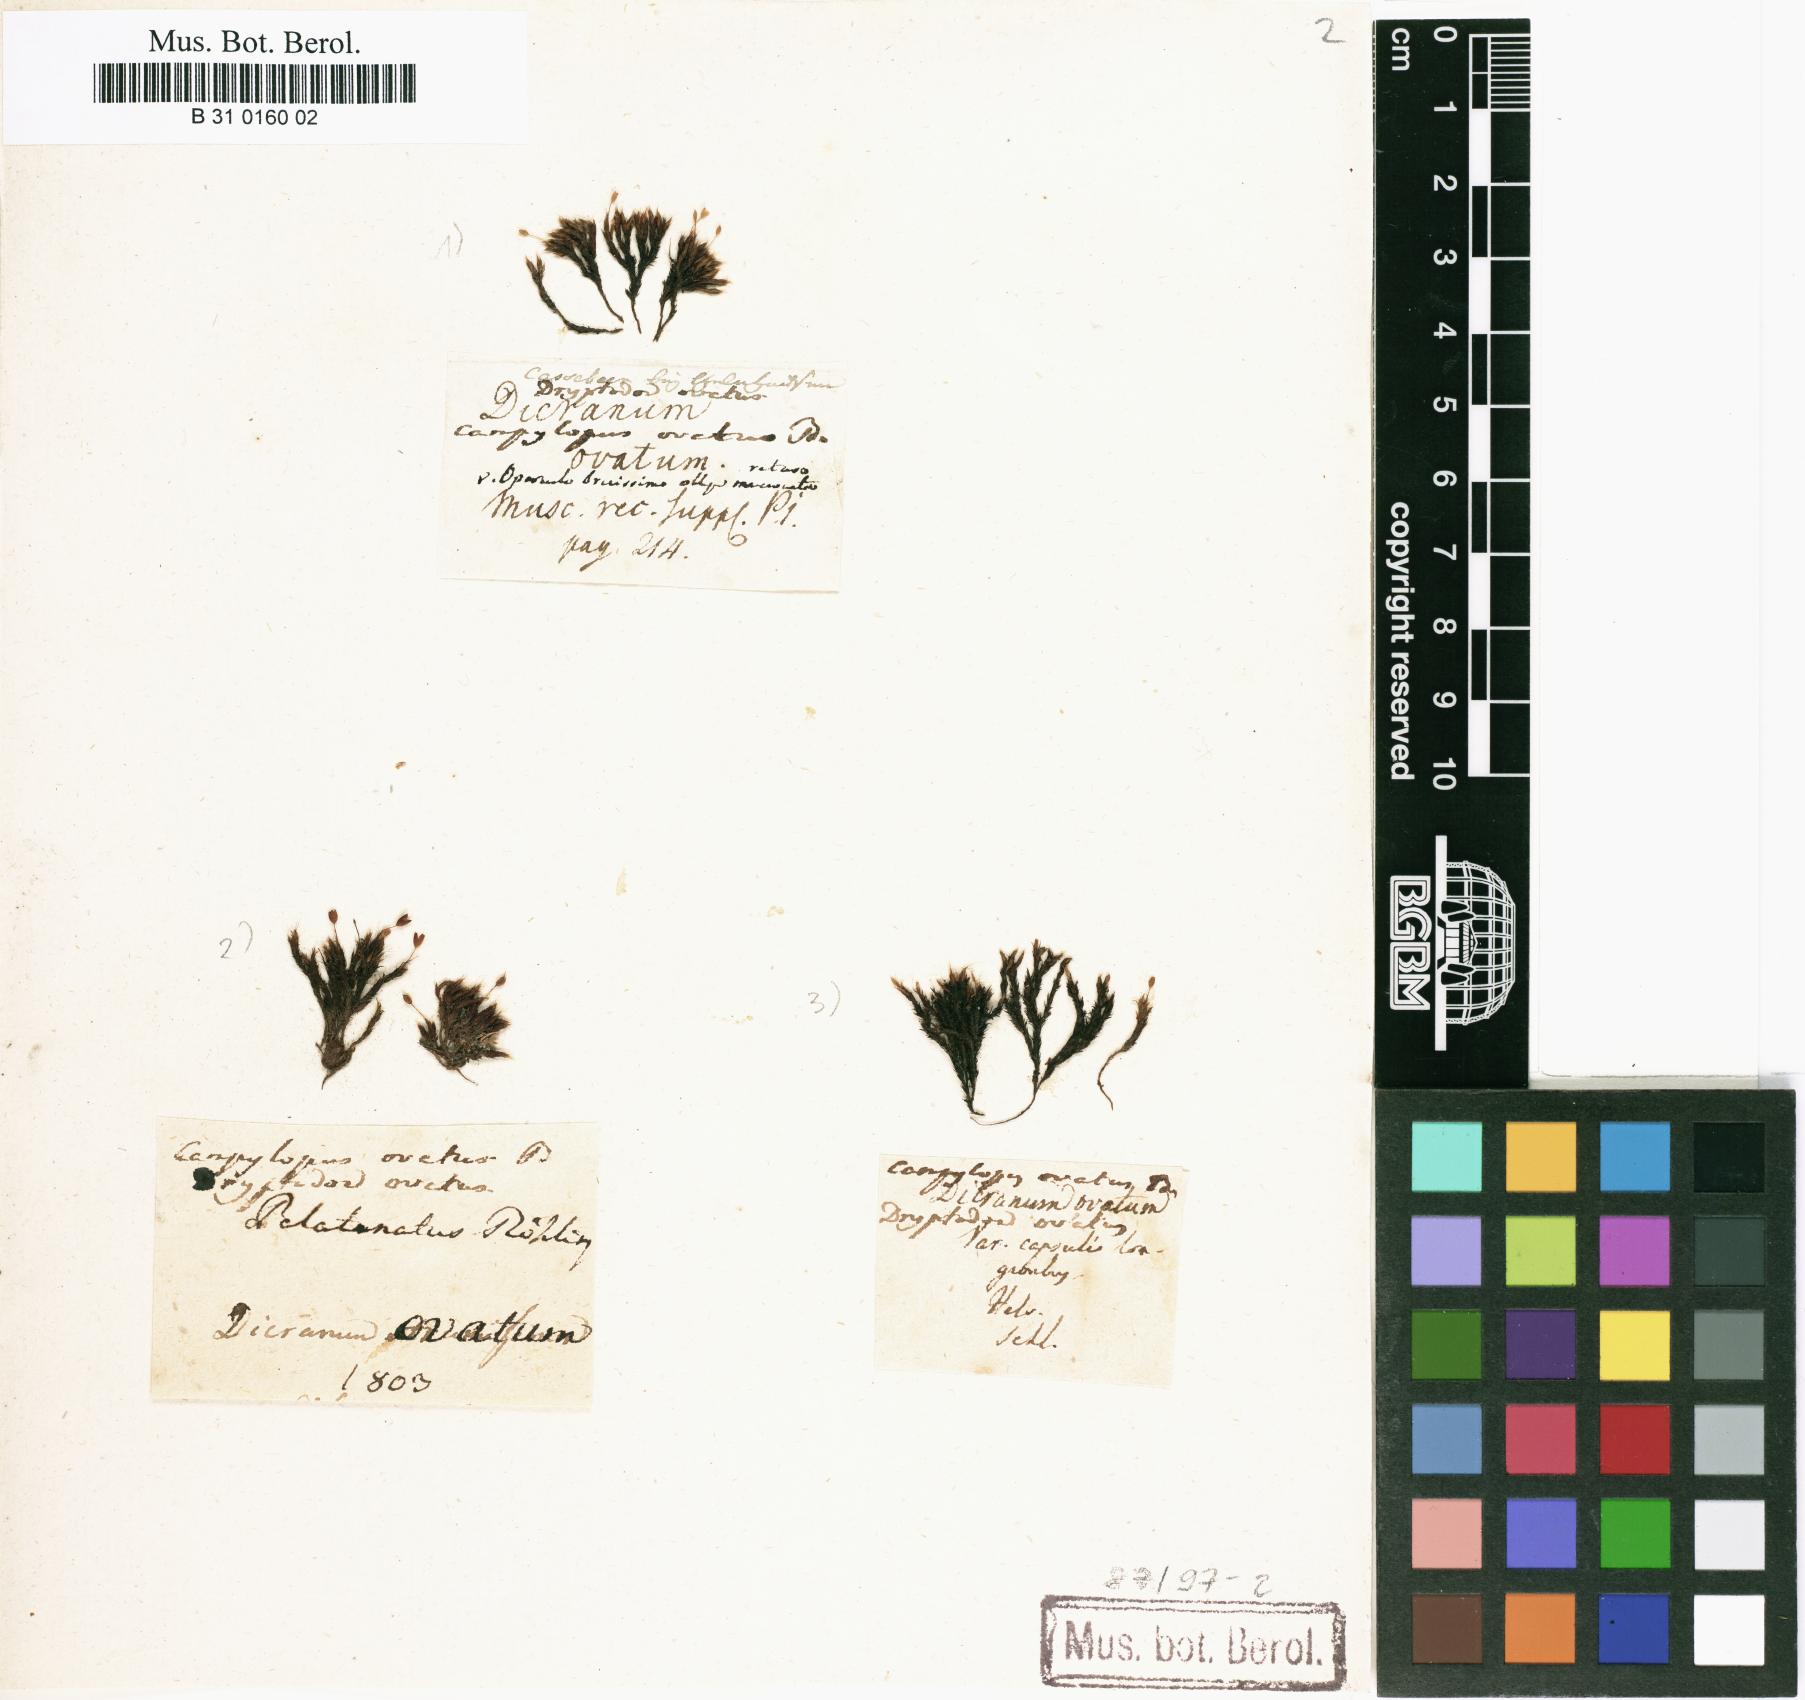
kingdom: Plantae
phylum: Bryophyta
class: Bryopsida
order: Grimmiales
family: Grimmiaceae
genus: Grimmia
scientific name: Grimmia ovalis
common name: Oval grimmia
